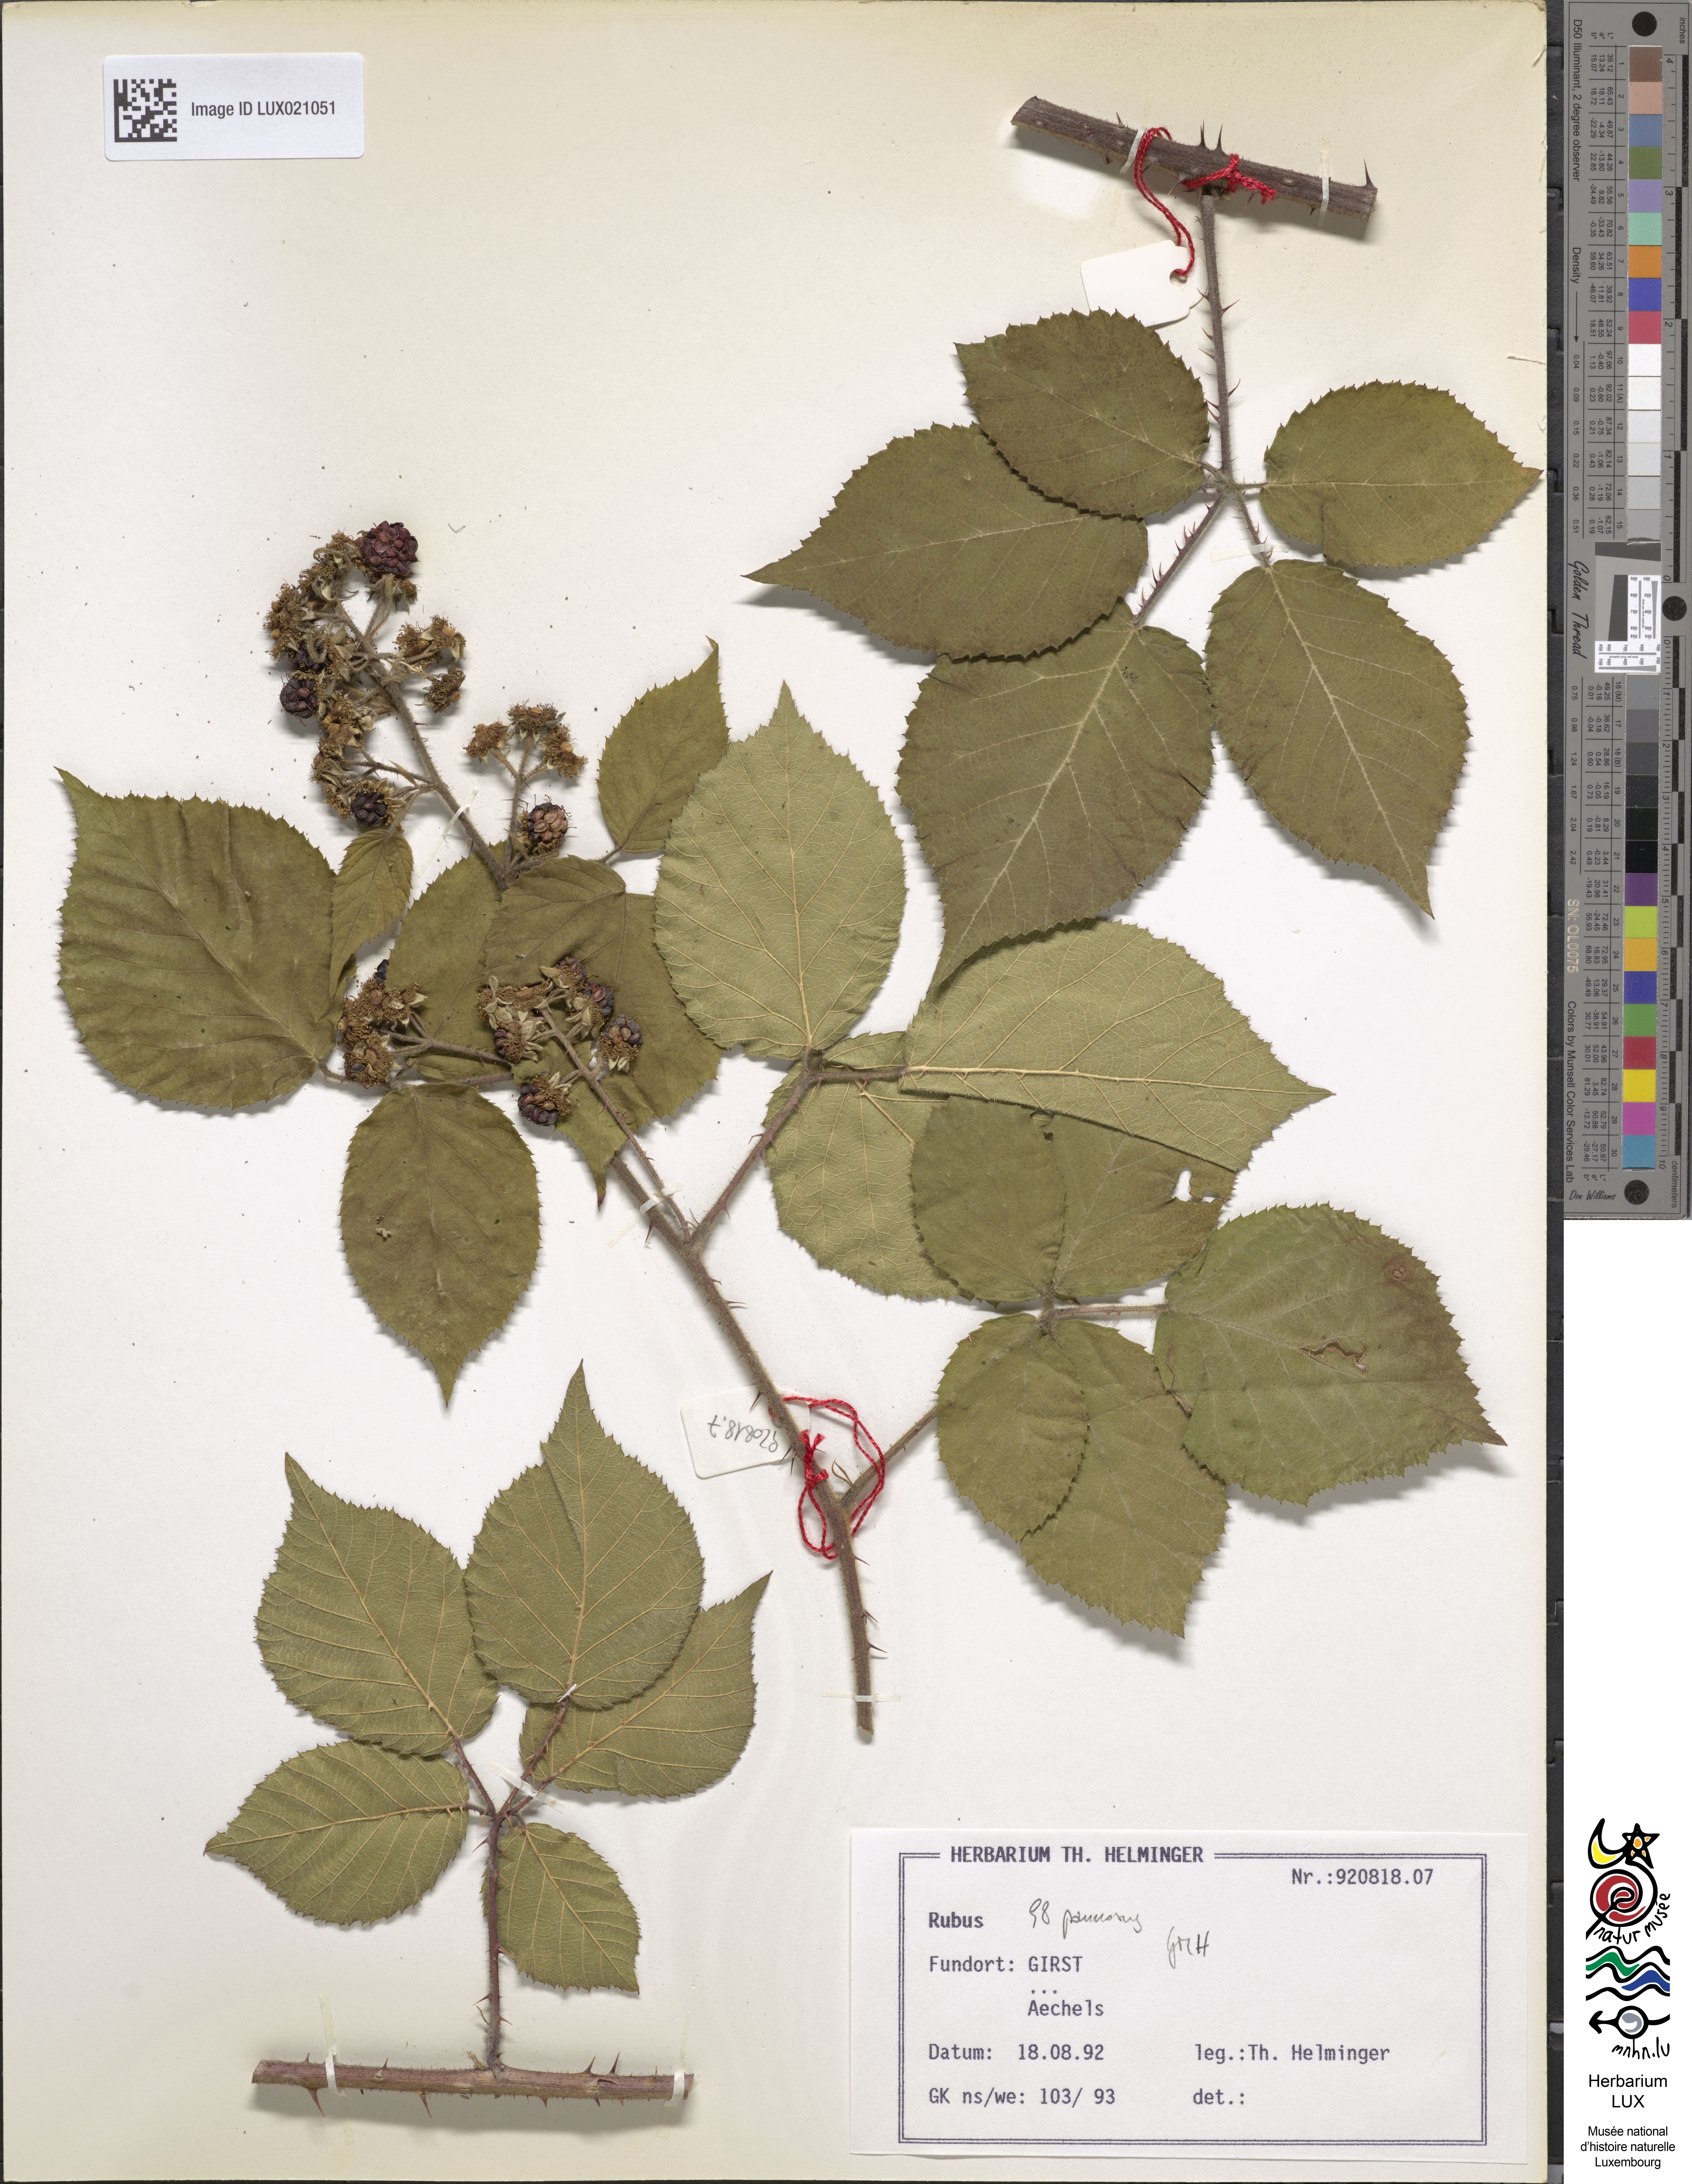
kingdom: Plantae
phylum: Tracheophyta
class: Magnoliopsida
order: Rosales
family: Rosaceae
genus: Rubus
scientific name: Rubus pannosus
